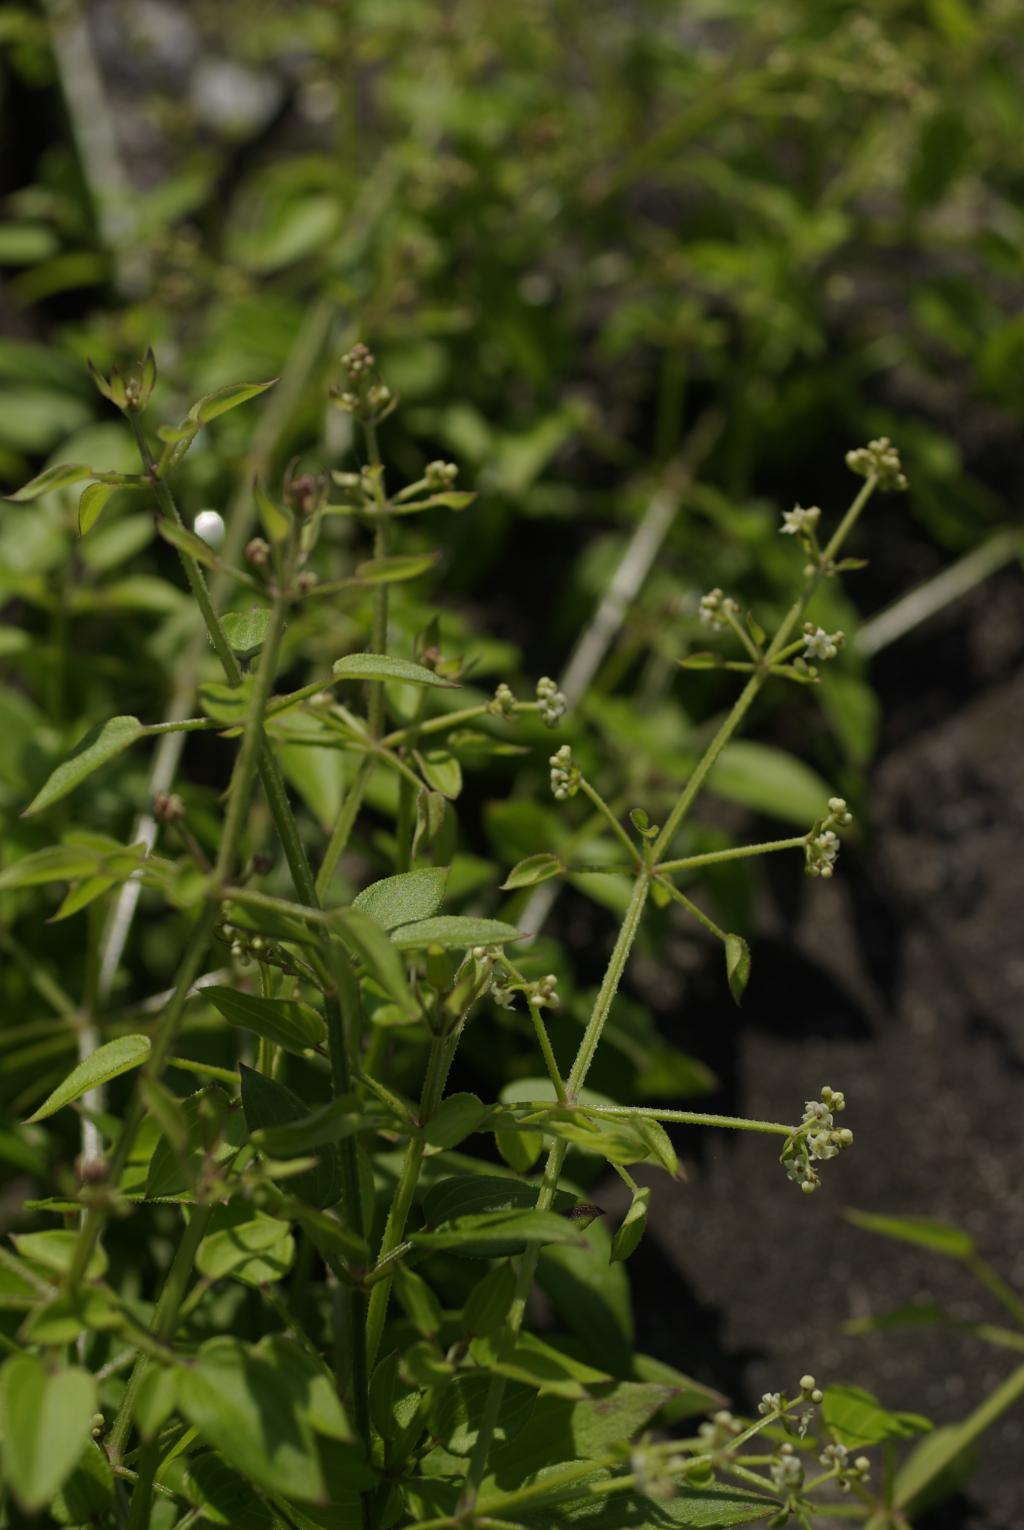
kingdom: Plantae
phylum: Tracheophyta
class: Magnoliopsida
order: Gentianales
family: Rubiaceae
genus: Rubia
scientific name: Rubia argyi
